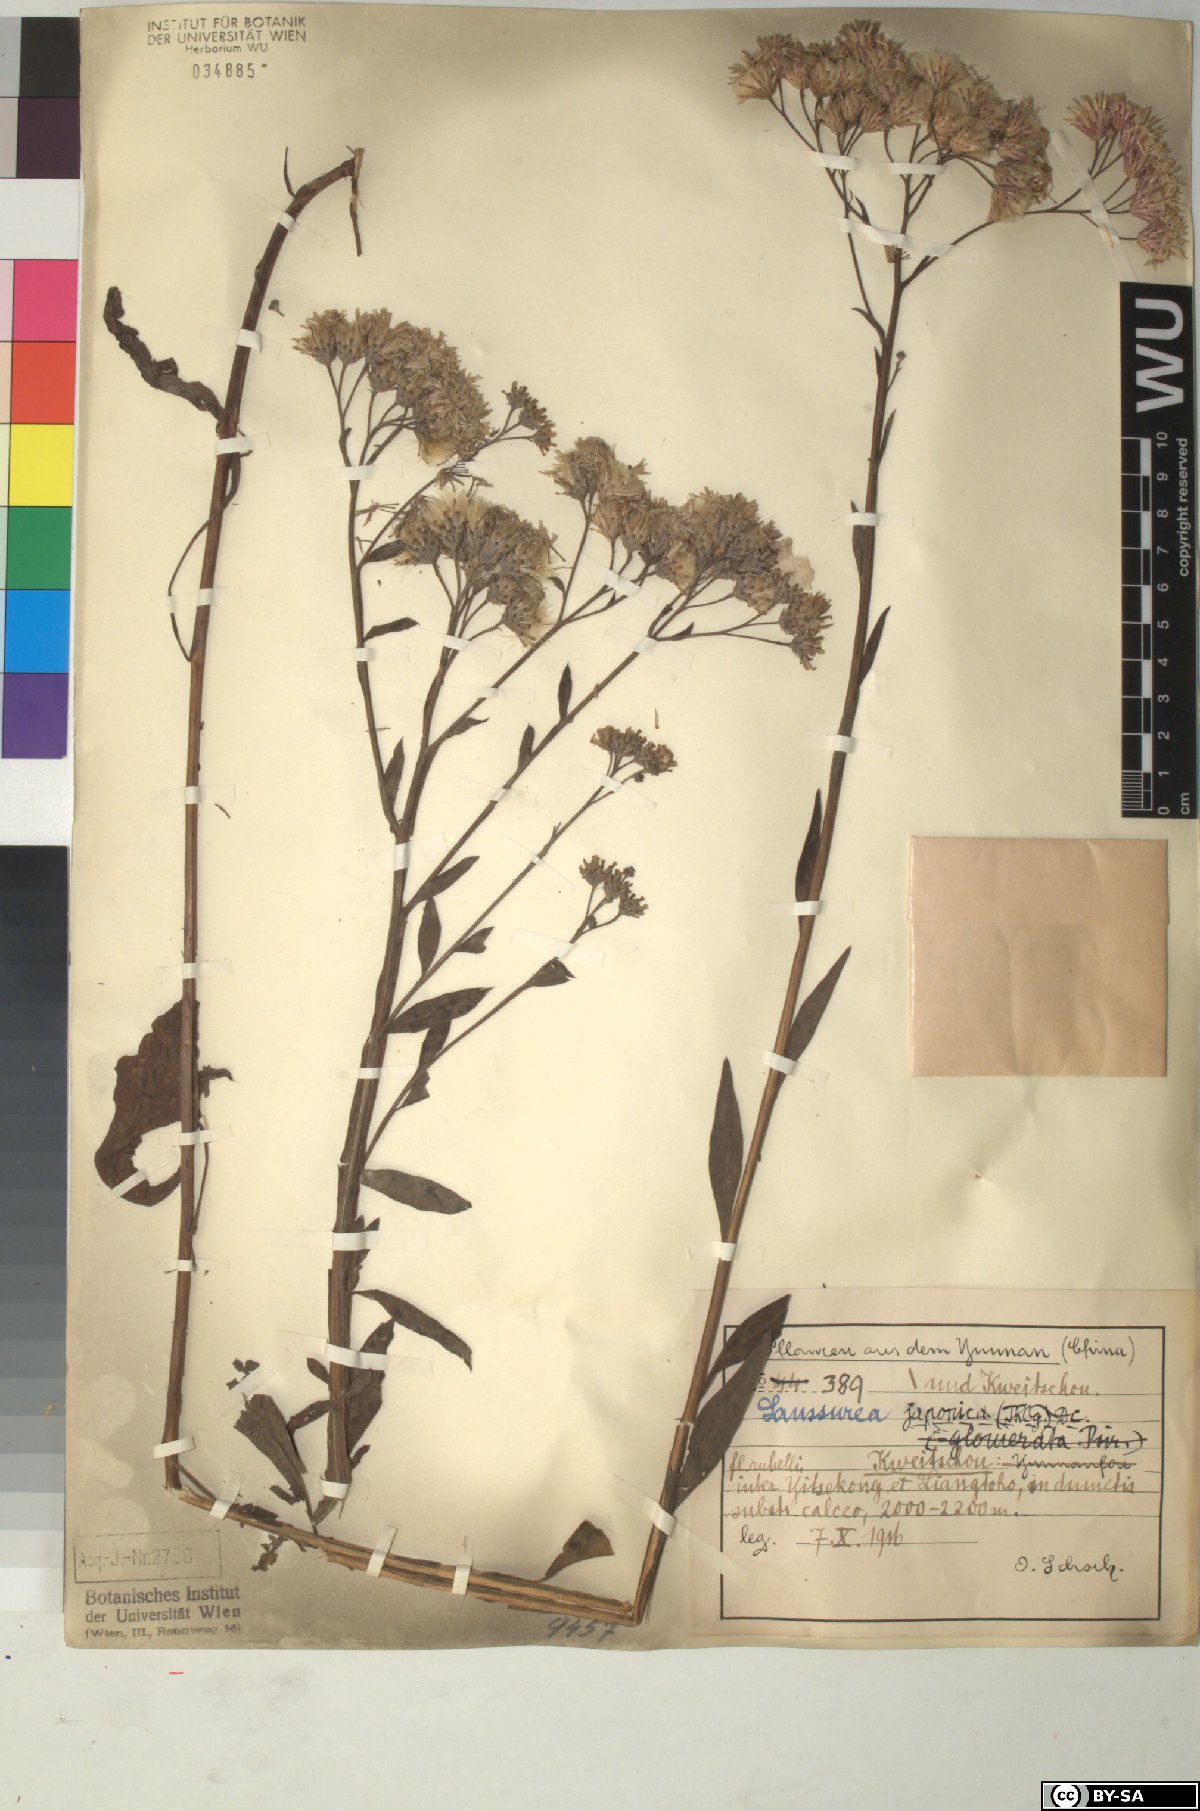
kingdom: Plantae
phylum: Tracheophyta
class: Magnoliopsida
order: Asterales
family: Asteraceae
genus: Saussurea
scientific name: Saussurea japonica
